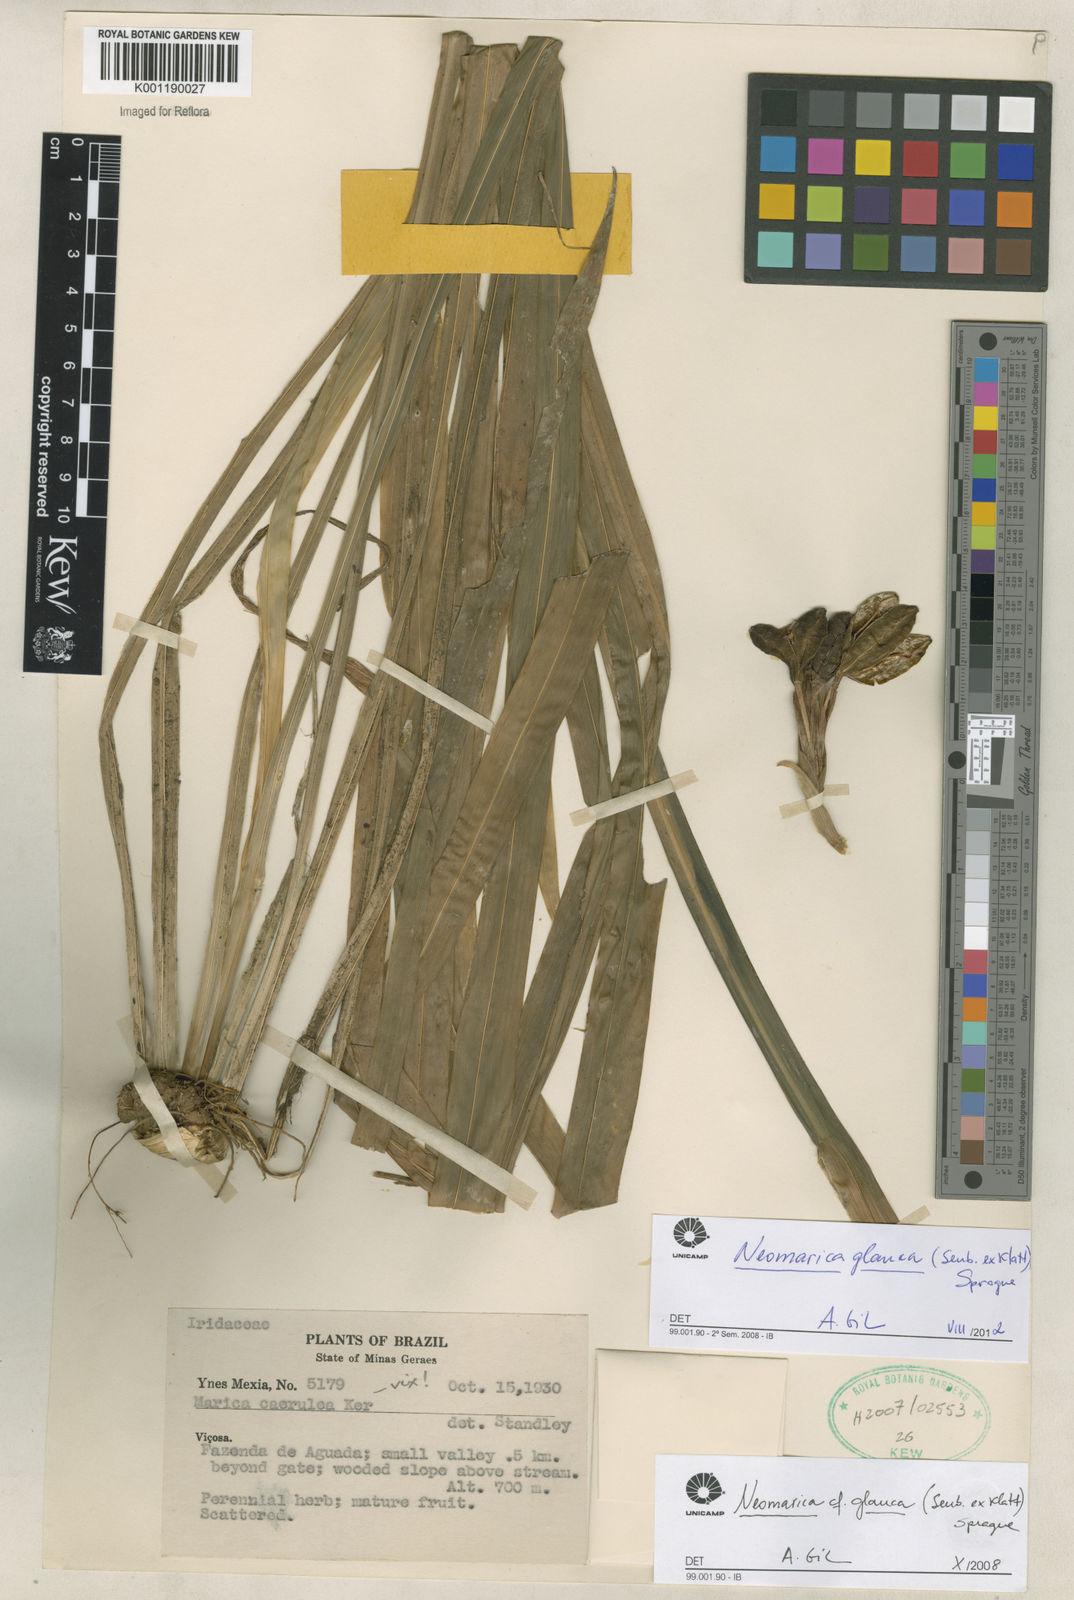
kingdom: Plantae
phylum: Tracheophyta
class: Liliopsida
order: Asparagales
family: Iridaceae
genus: Trimezia
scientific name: Trimezia glauca
